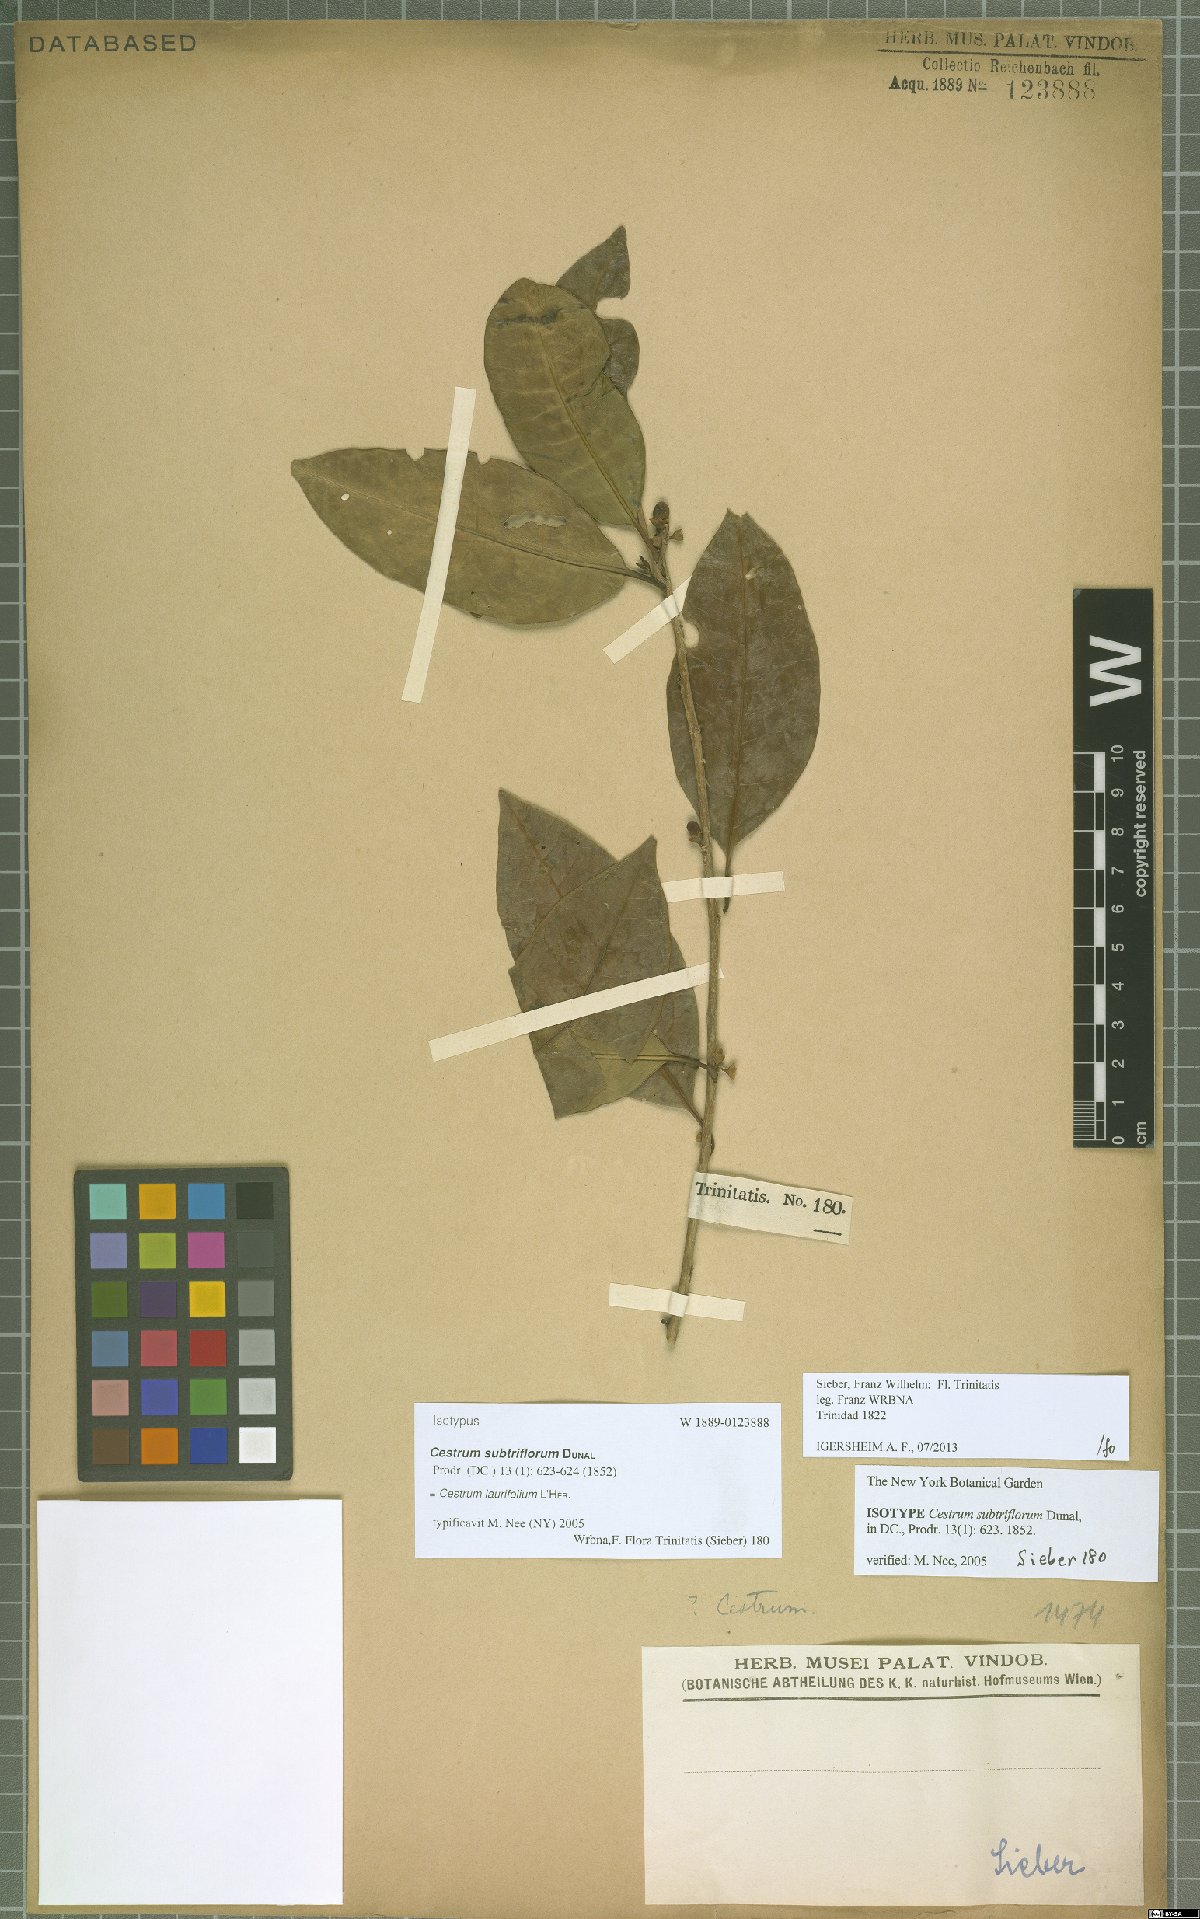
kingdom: Plantae
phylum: Tracheophyta
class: Magnoliopsida
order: Solanales
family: Solanaceae
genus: Cestrum
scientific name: Cestrum
